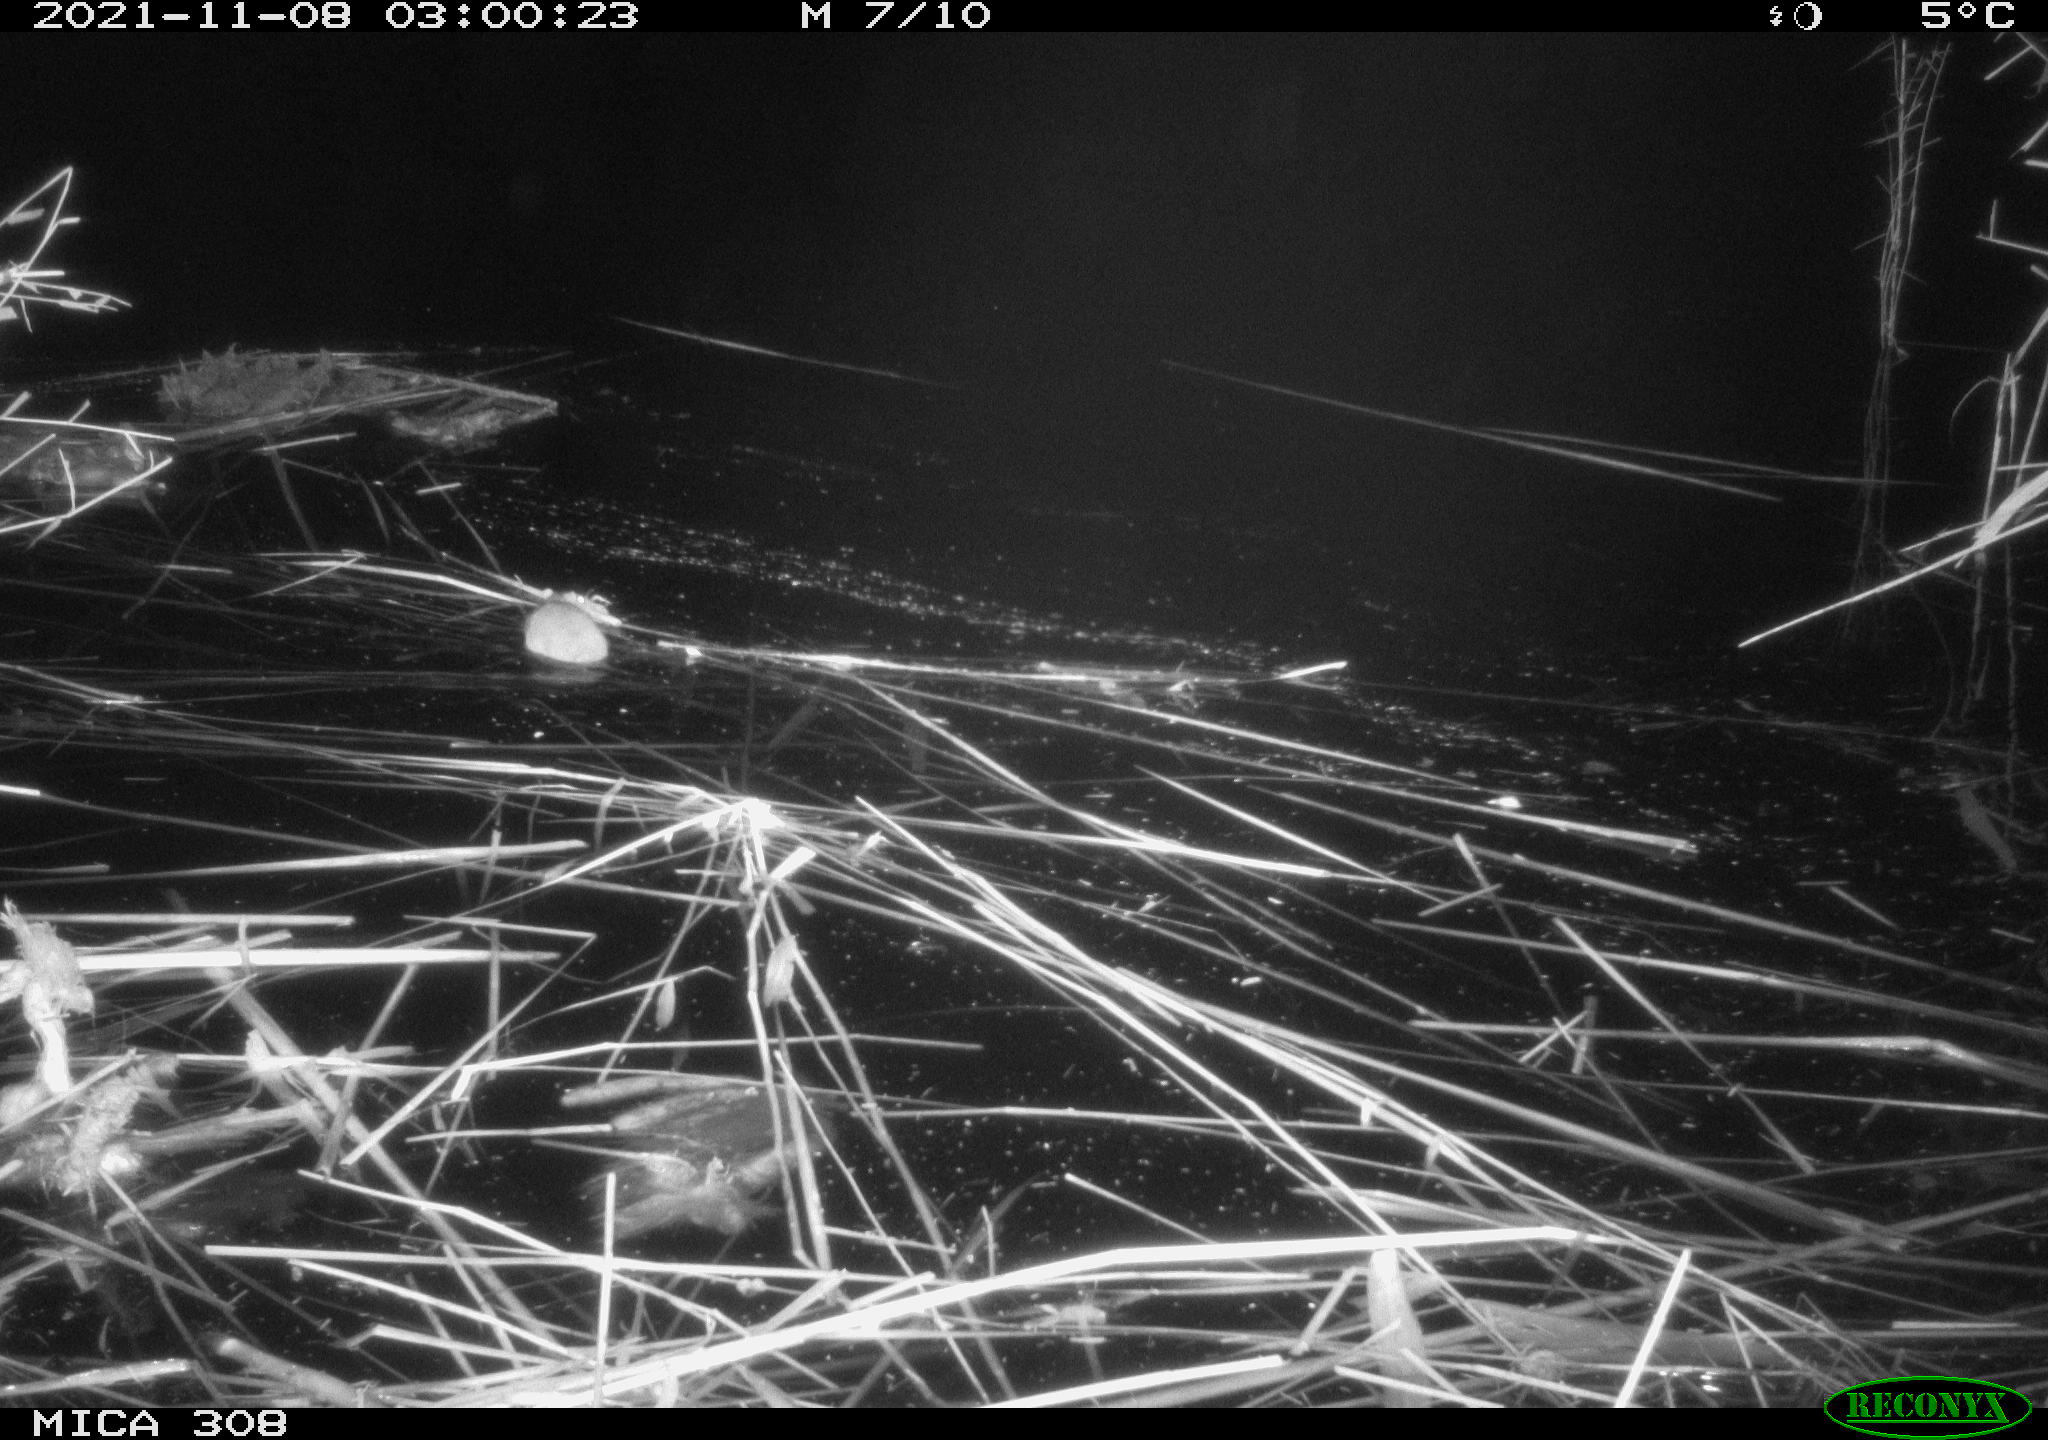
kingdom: Animalia
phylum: Chordata
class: Mammalia
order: Rodentia
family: Muridae
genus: Rattus
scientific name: Rattus norvegicus
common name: Brown rat
